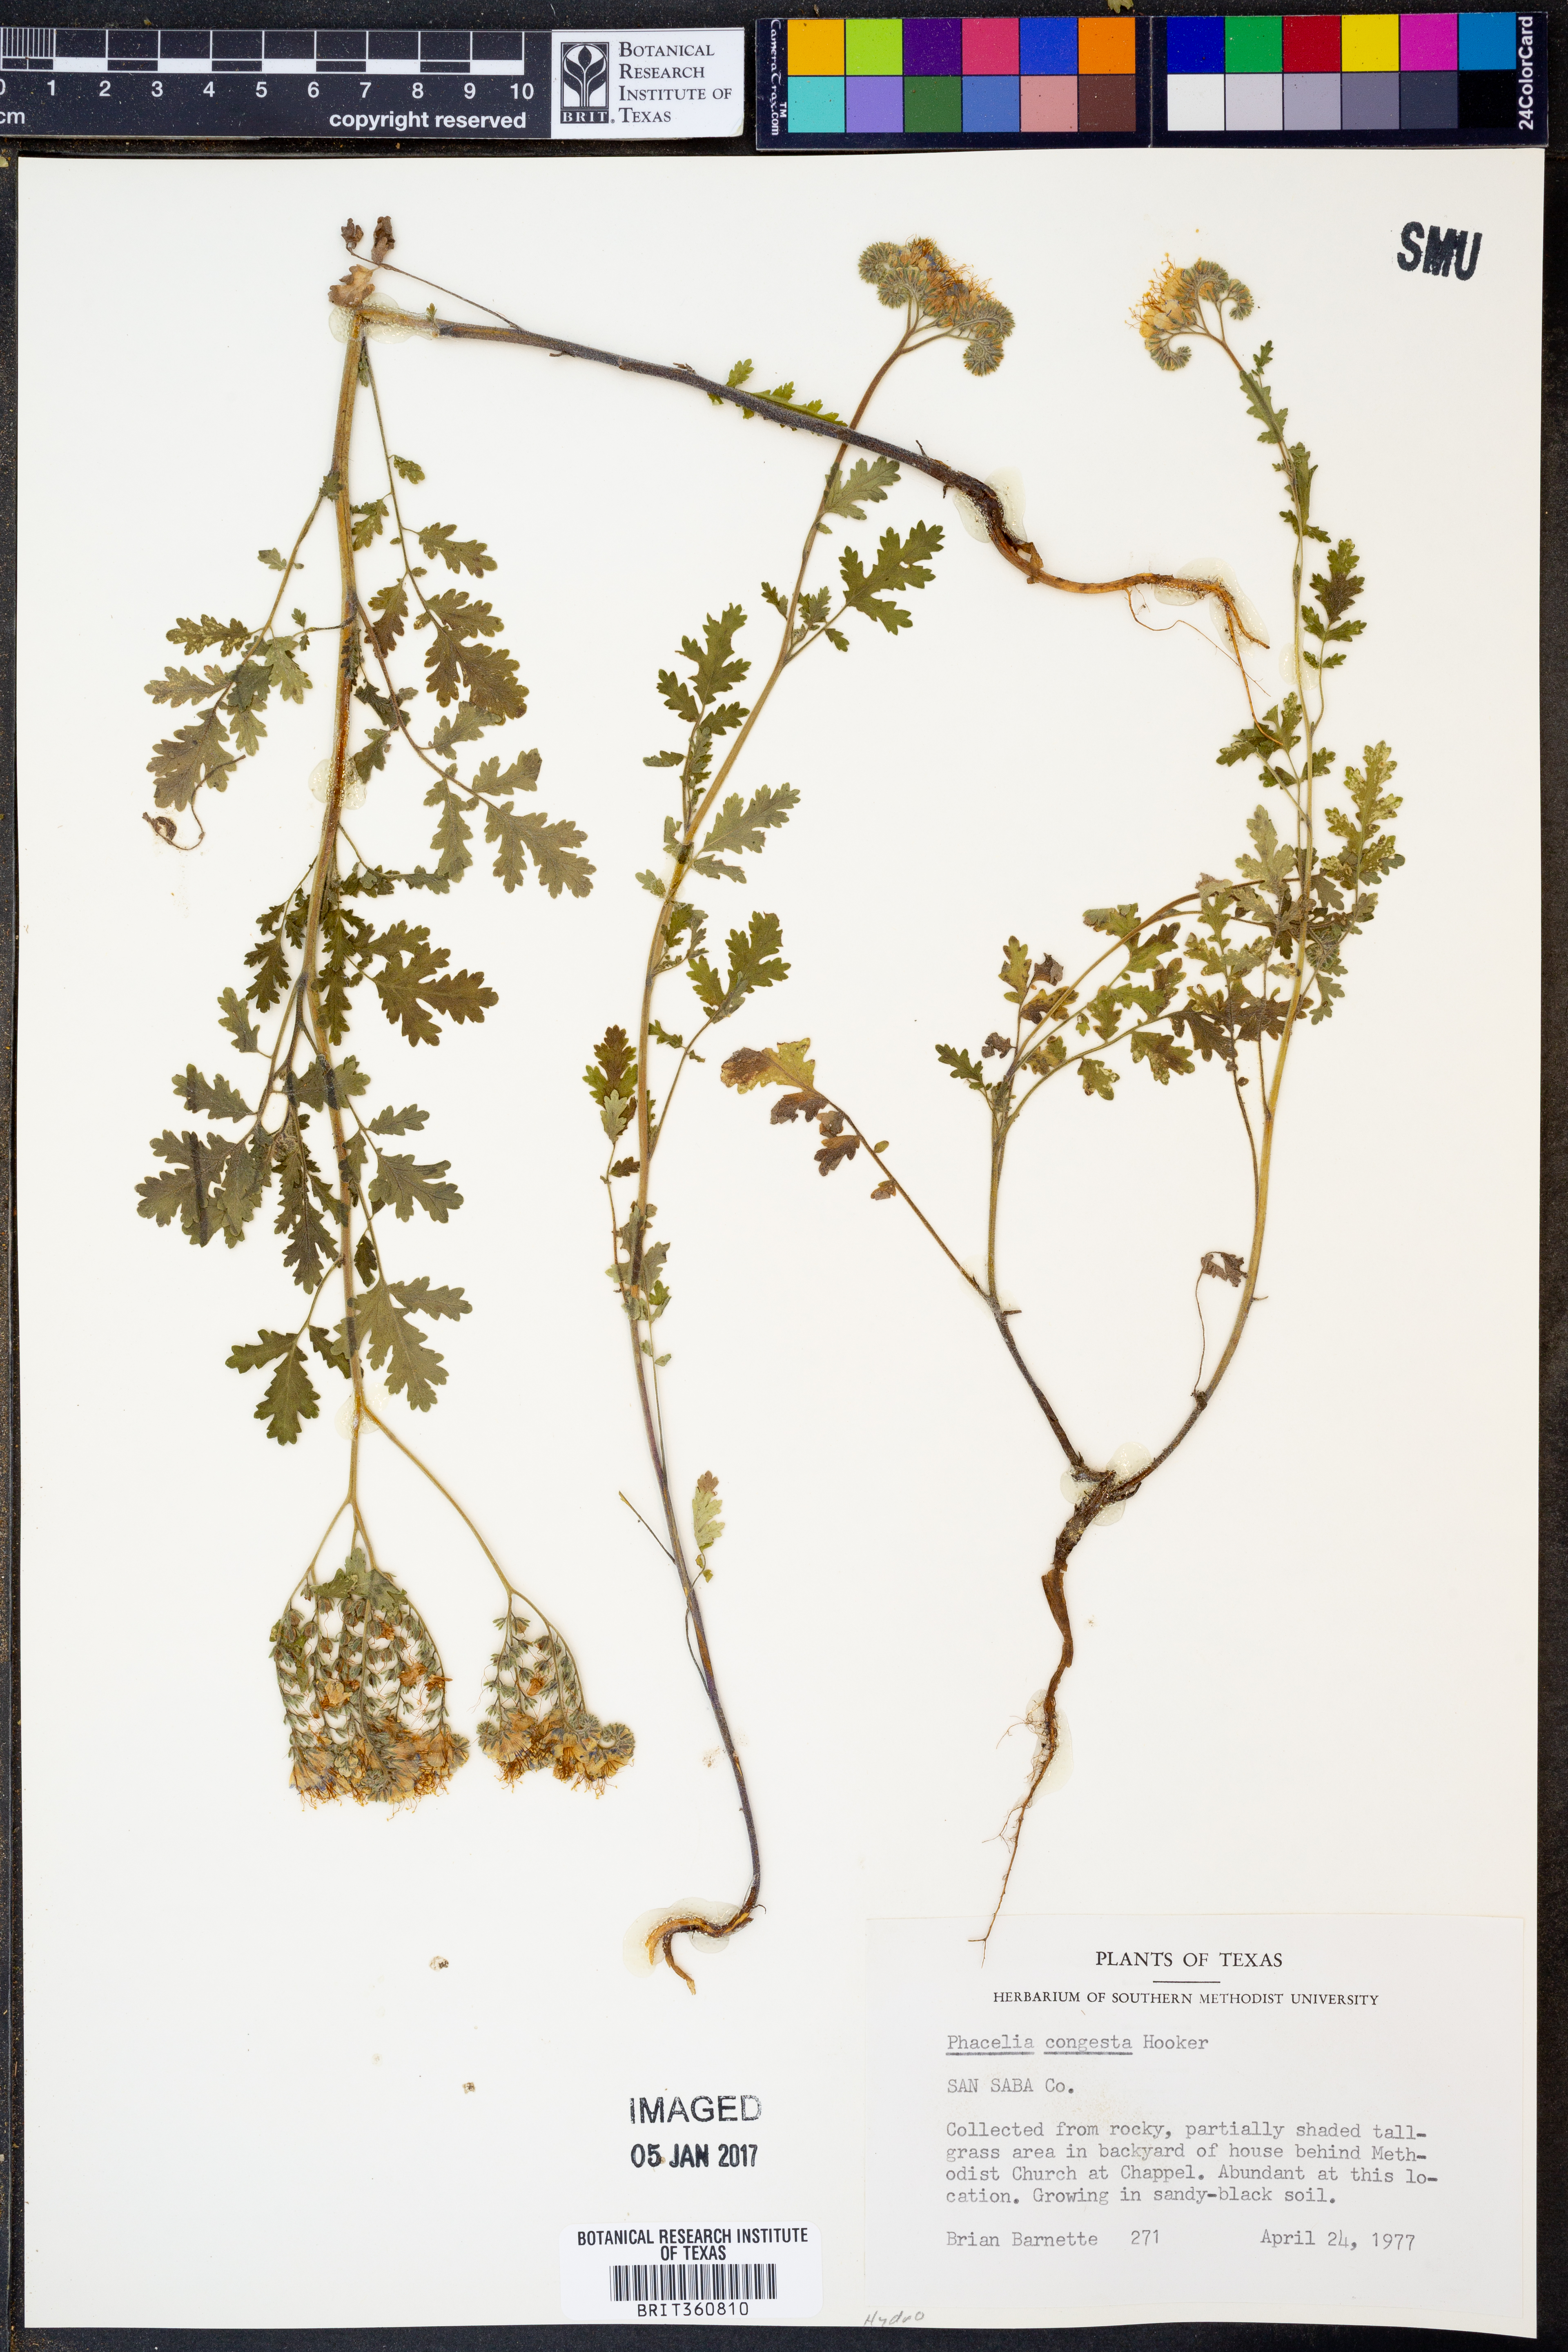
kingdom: Plantae
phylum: Tracheophyta
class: Magnoliopsida
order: Boraginales
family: Hydrophyllaceae
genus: Phacelia
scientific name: Phacelia congesta
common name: Blue curls
